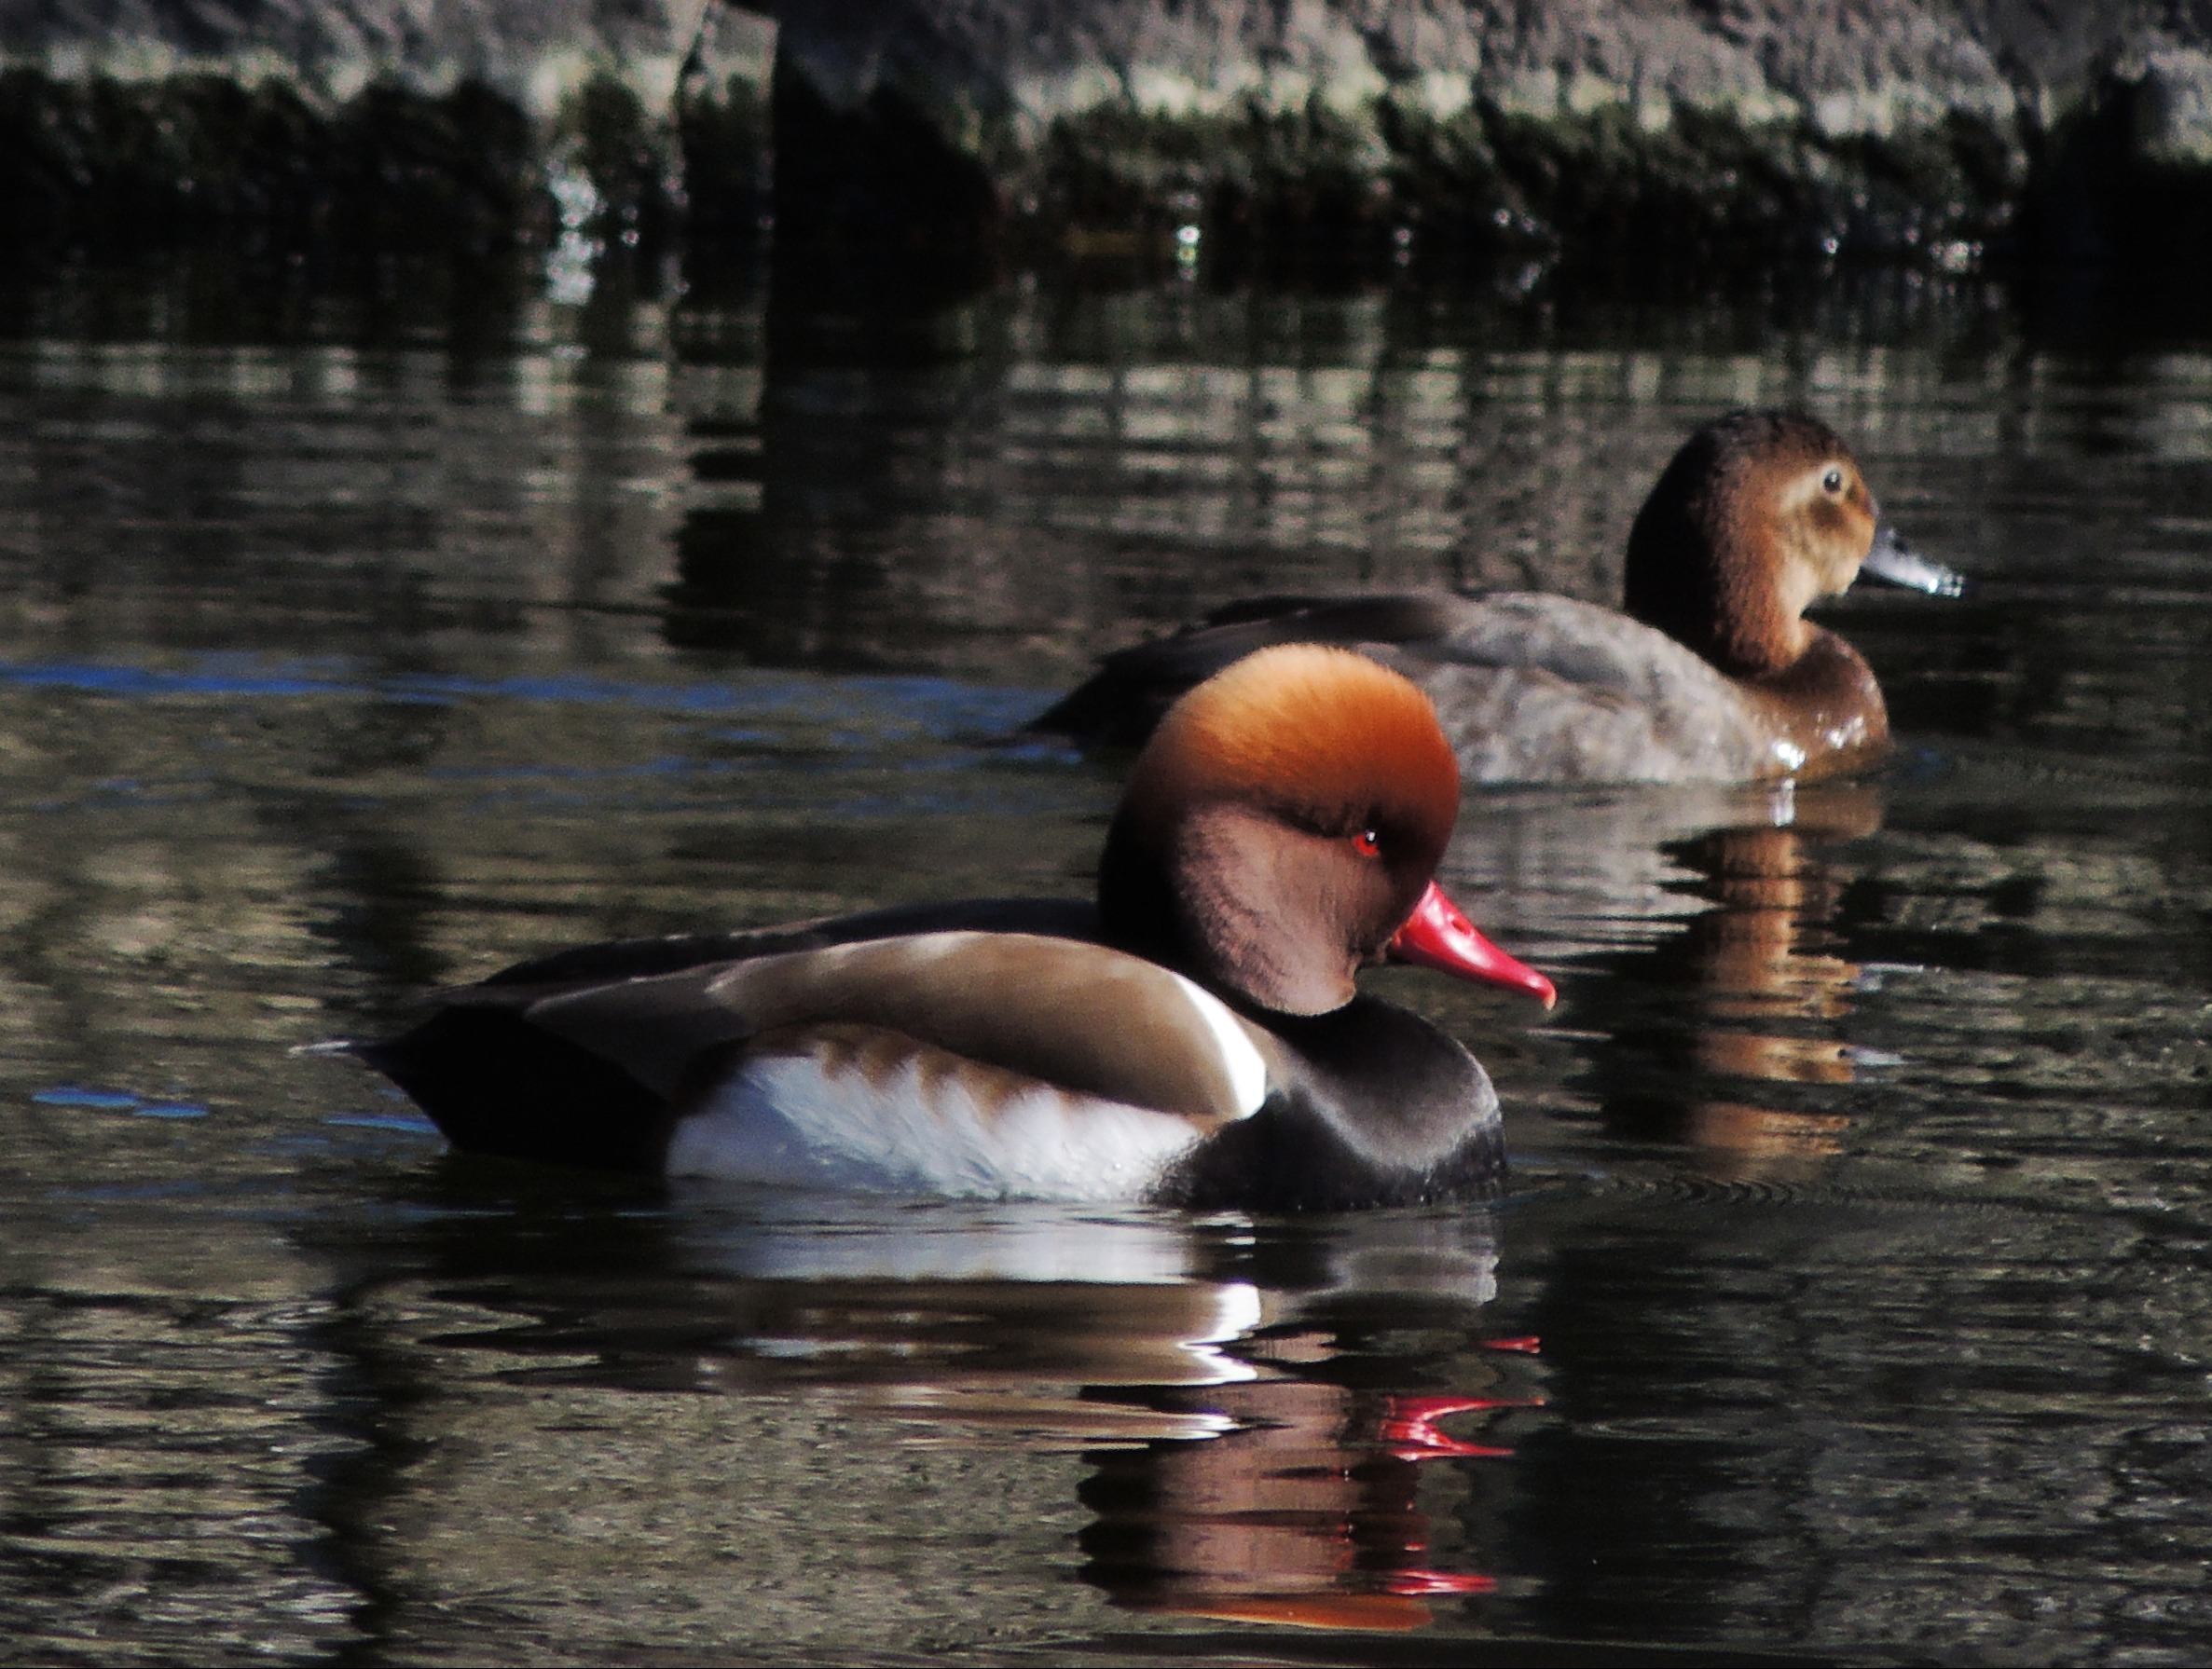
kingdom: Animalia
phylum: Chordata
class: Aves
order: Anseriformes
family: Anatidae
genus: Netta
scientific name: Netta rufina
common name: Rødhovedet and
